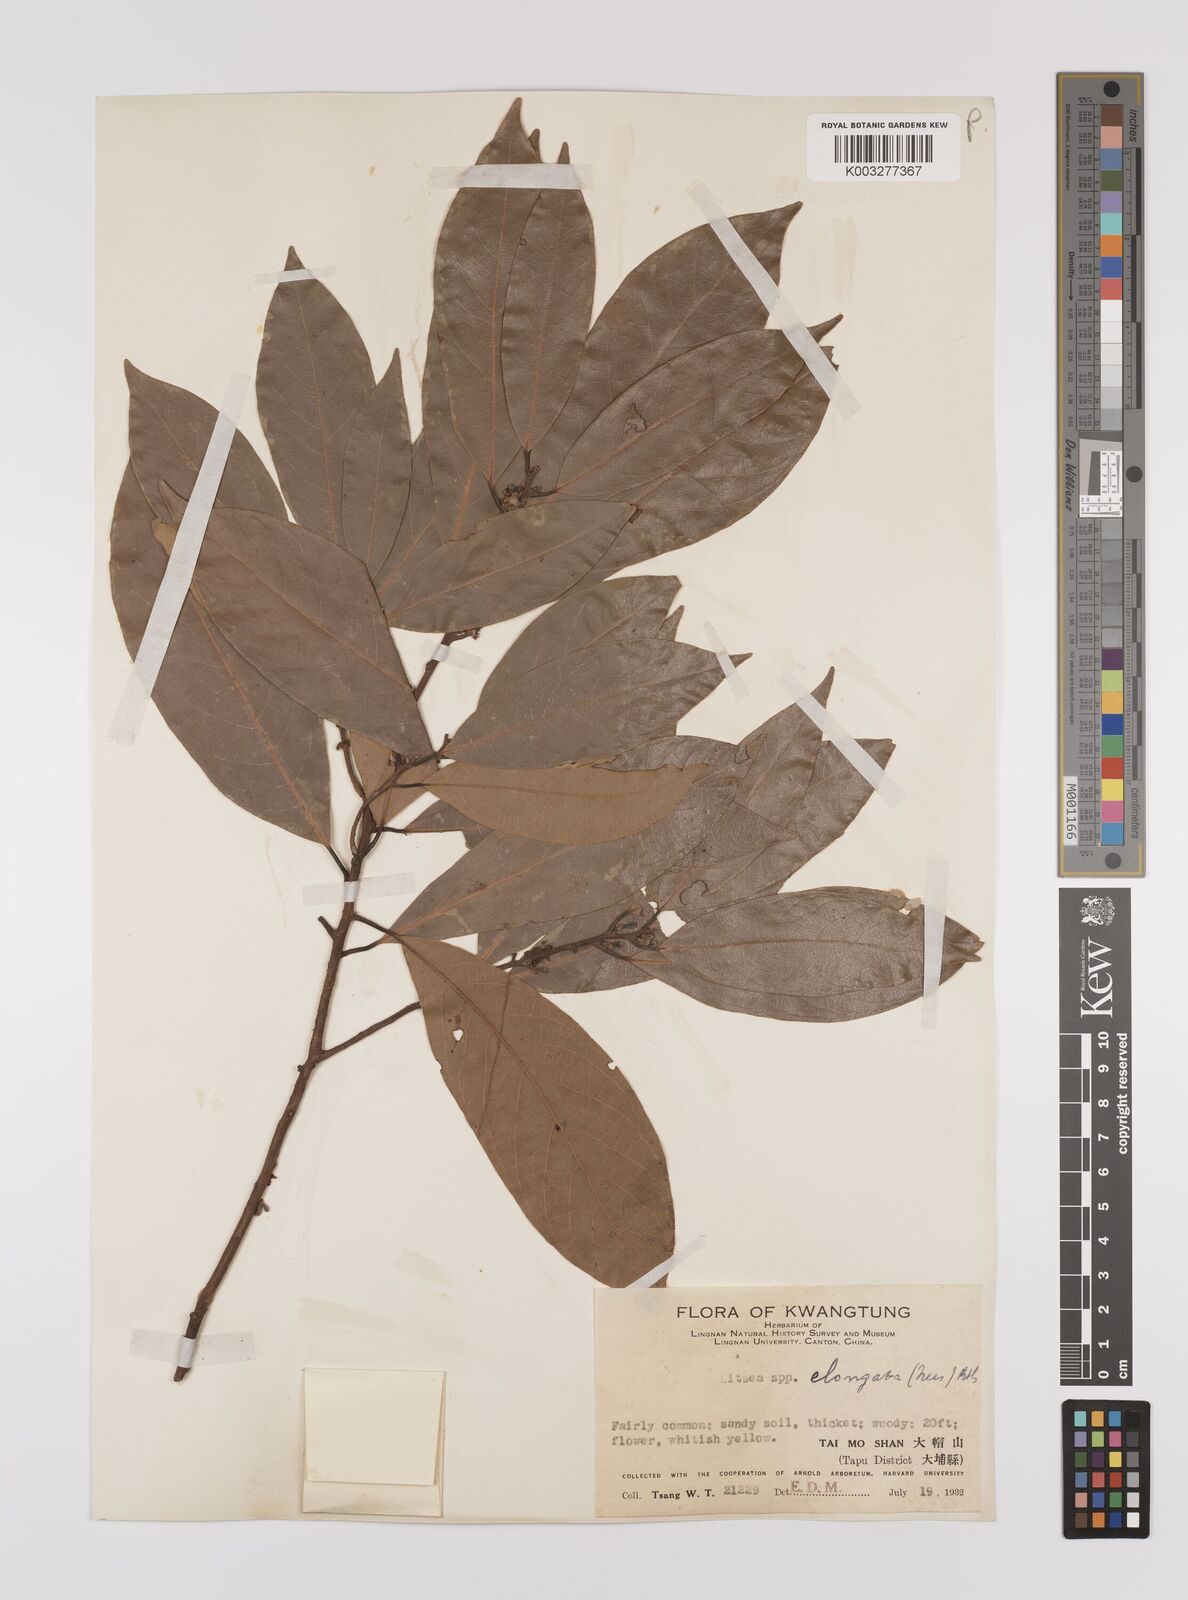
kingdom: Plantae
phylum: Tracheophyta
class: Magnoliopsida
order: Laurales
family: Lauraceae
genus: Litsea
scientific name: Litsea elongata
